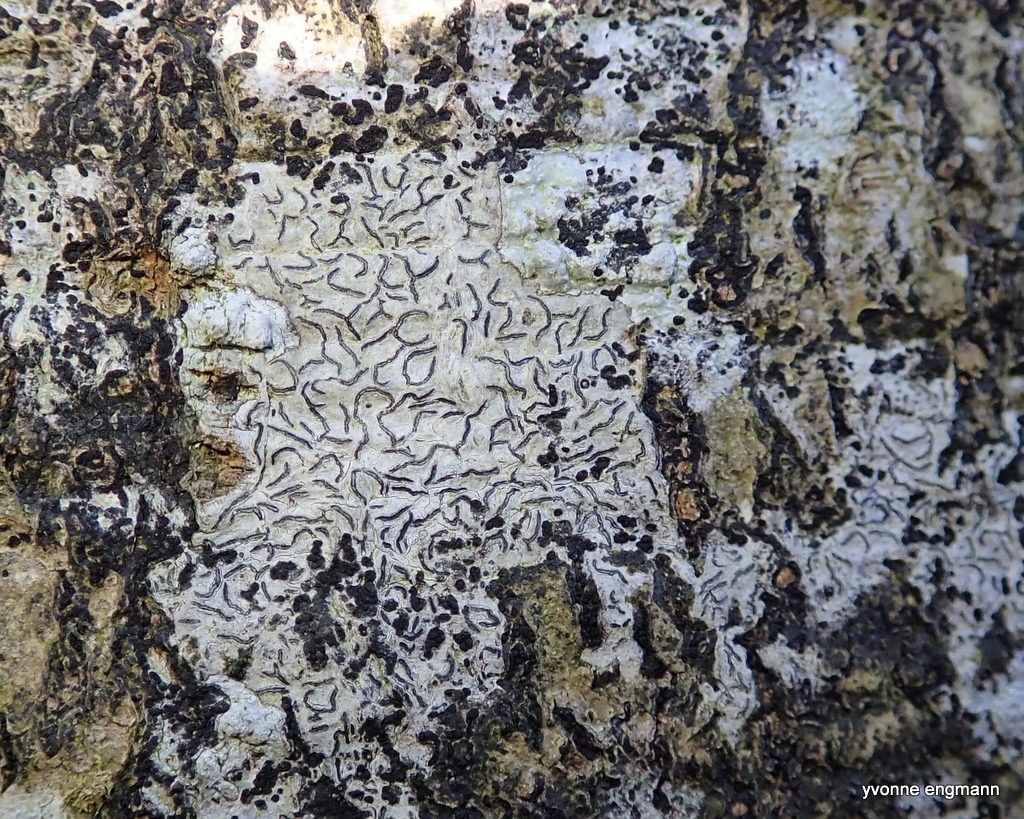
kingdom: Fungi
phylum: Ascomycota
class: Lecanoromycetes
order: Ostropales
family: Graphidaceae
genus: Graphis
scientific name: Graphis scripta
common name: almindelig skriftlav
